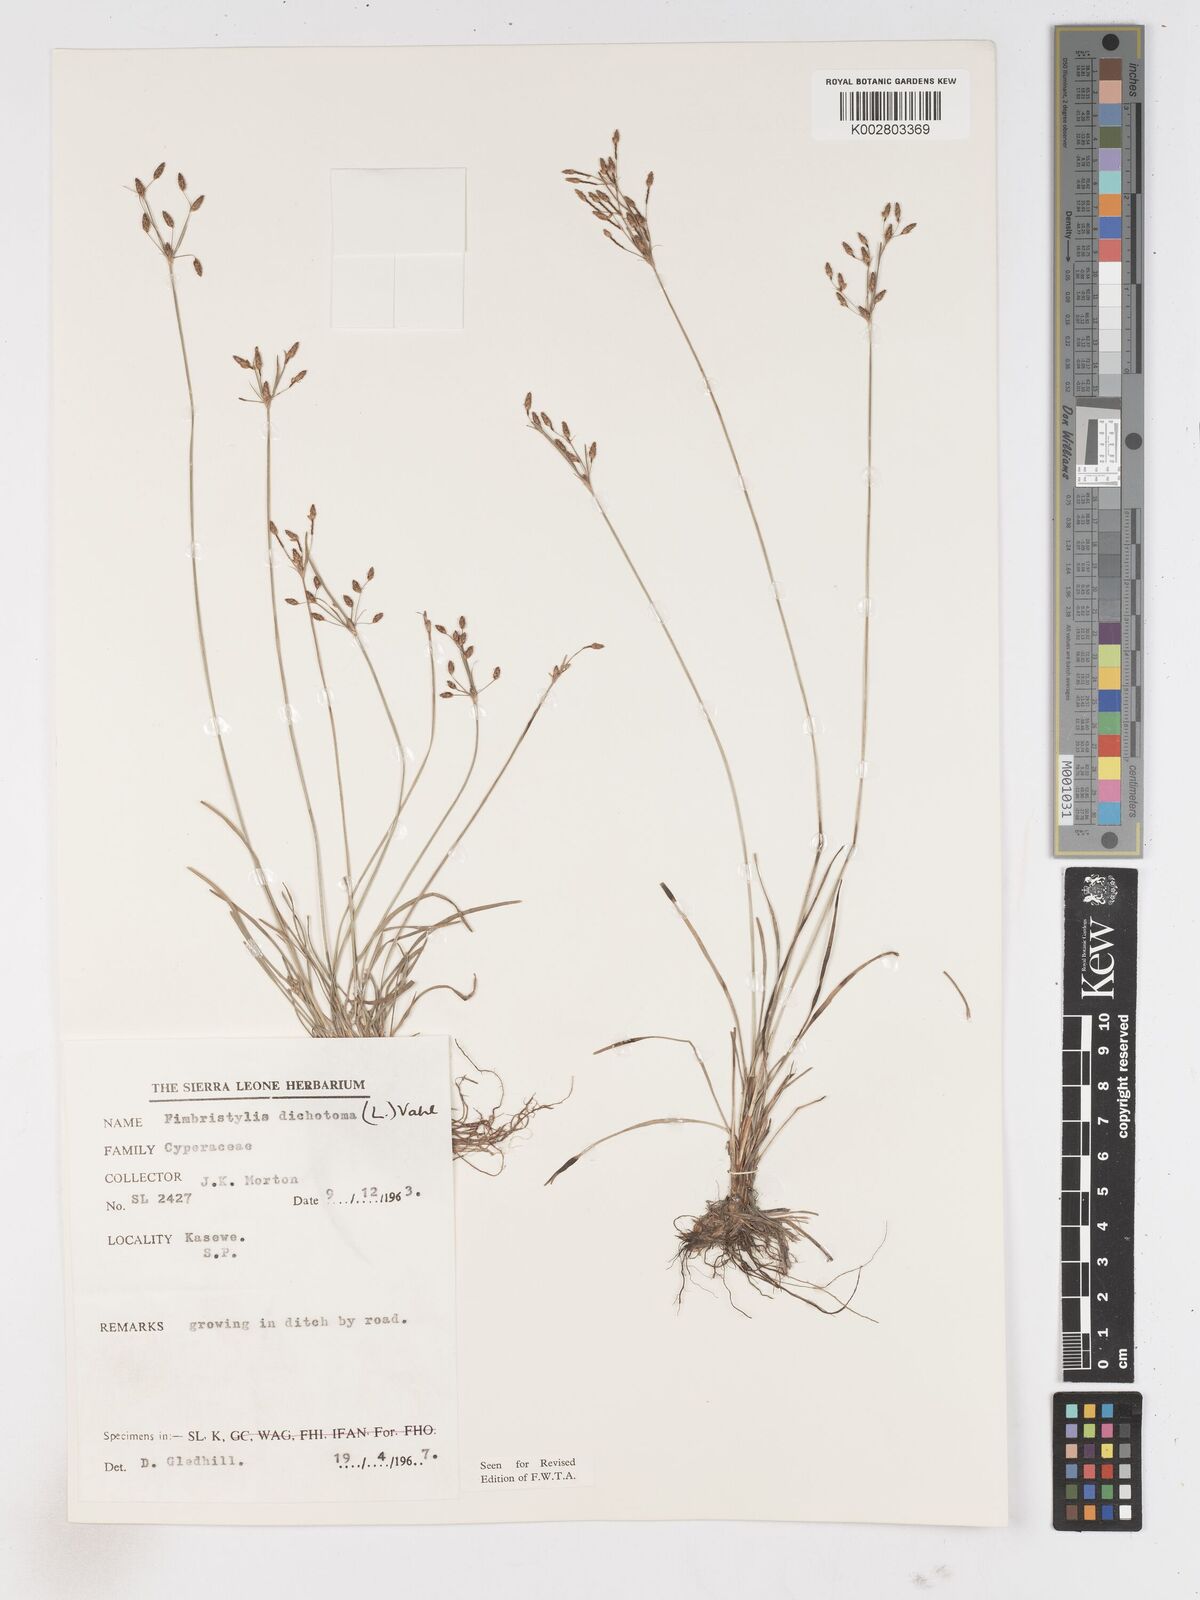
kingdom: Plantae
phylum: Tracheophyta
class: Liliopsida
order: Poales
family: Cyperaceae
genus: Fimbristylis
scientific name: Fimbristylis dichotoma
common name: Forked fimbry
